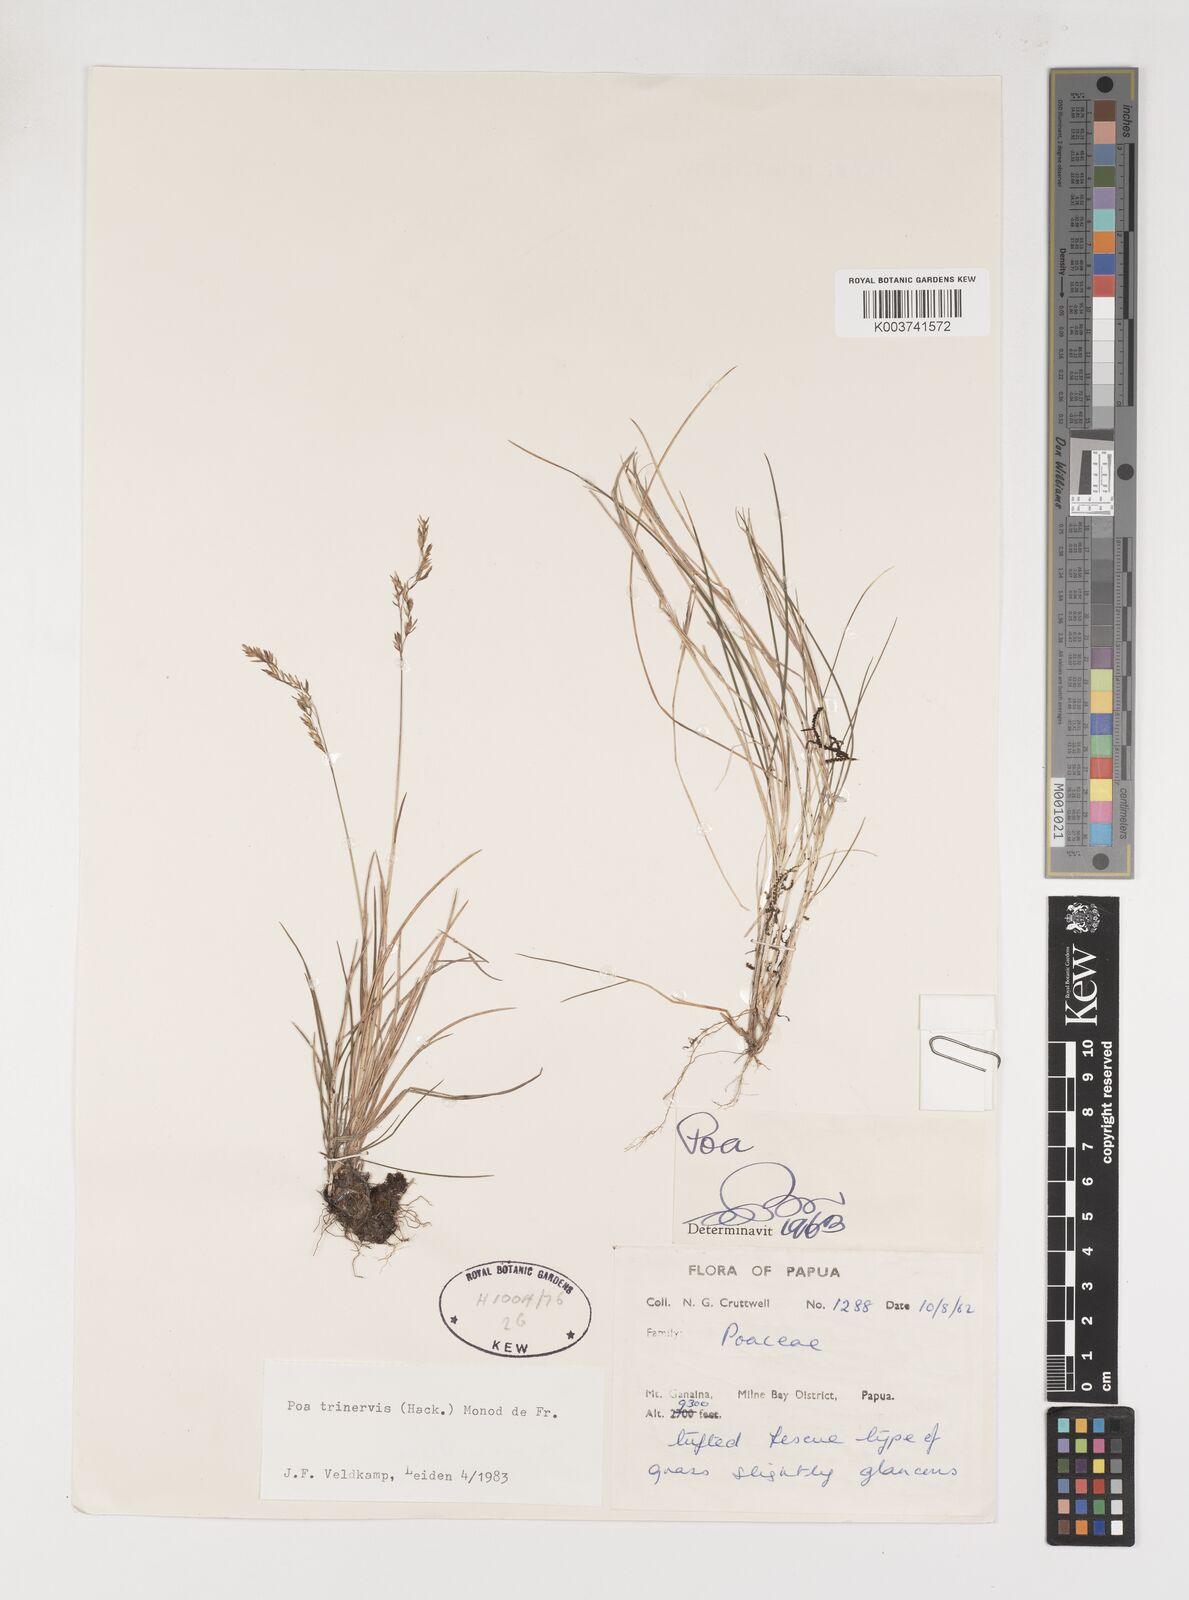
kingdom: Plantae
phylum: Tracheophyta
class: Liliopsida
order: Poales
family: Poaceae
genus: Poa
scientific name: Poa trinervis
